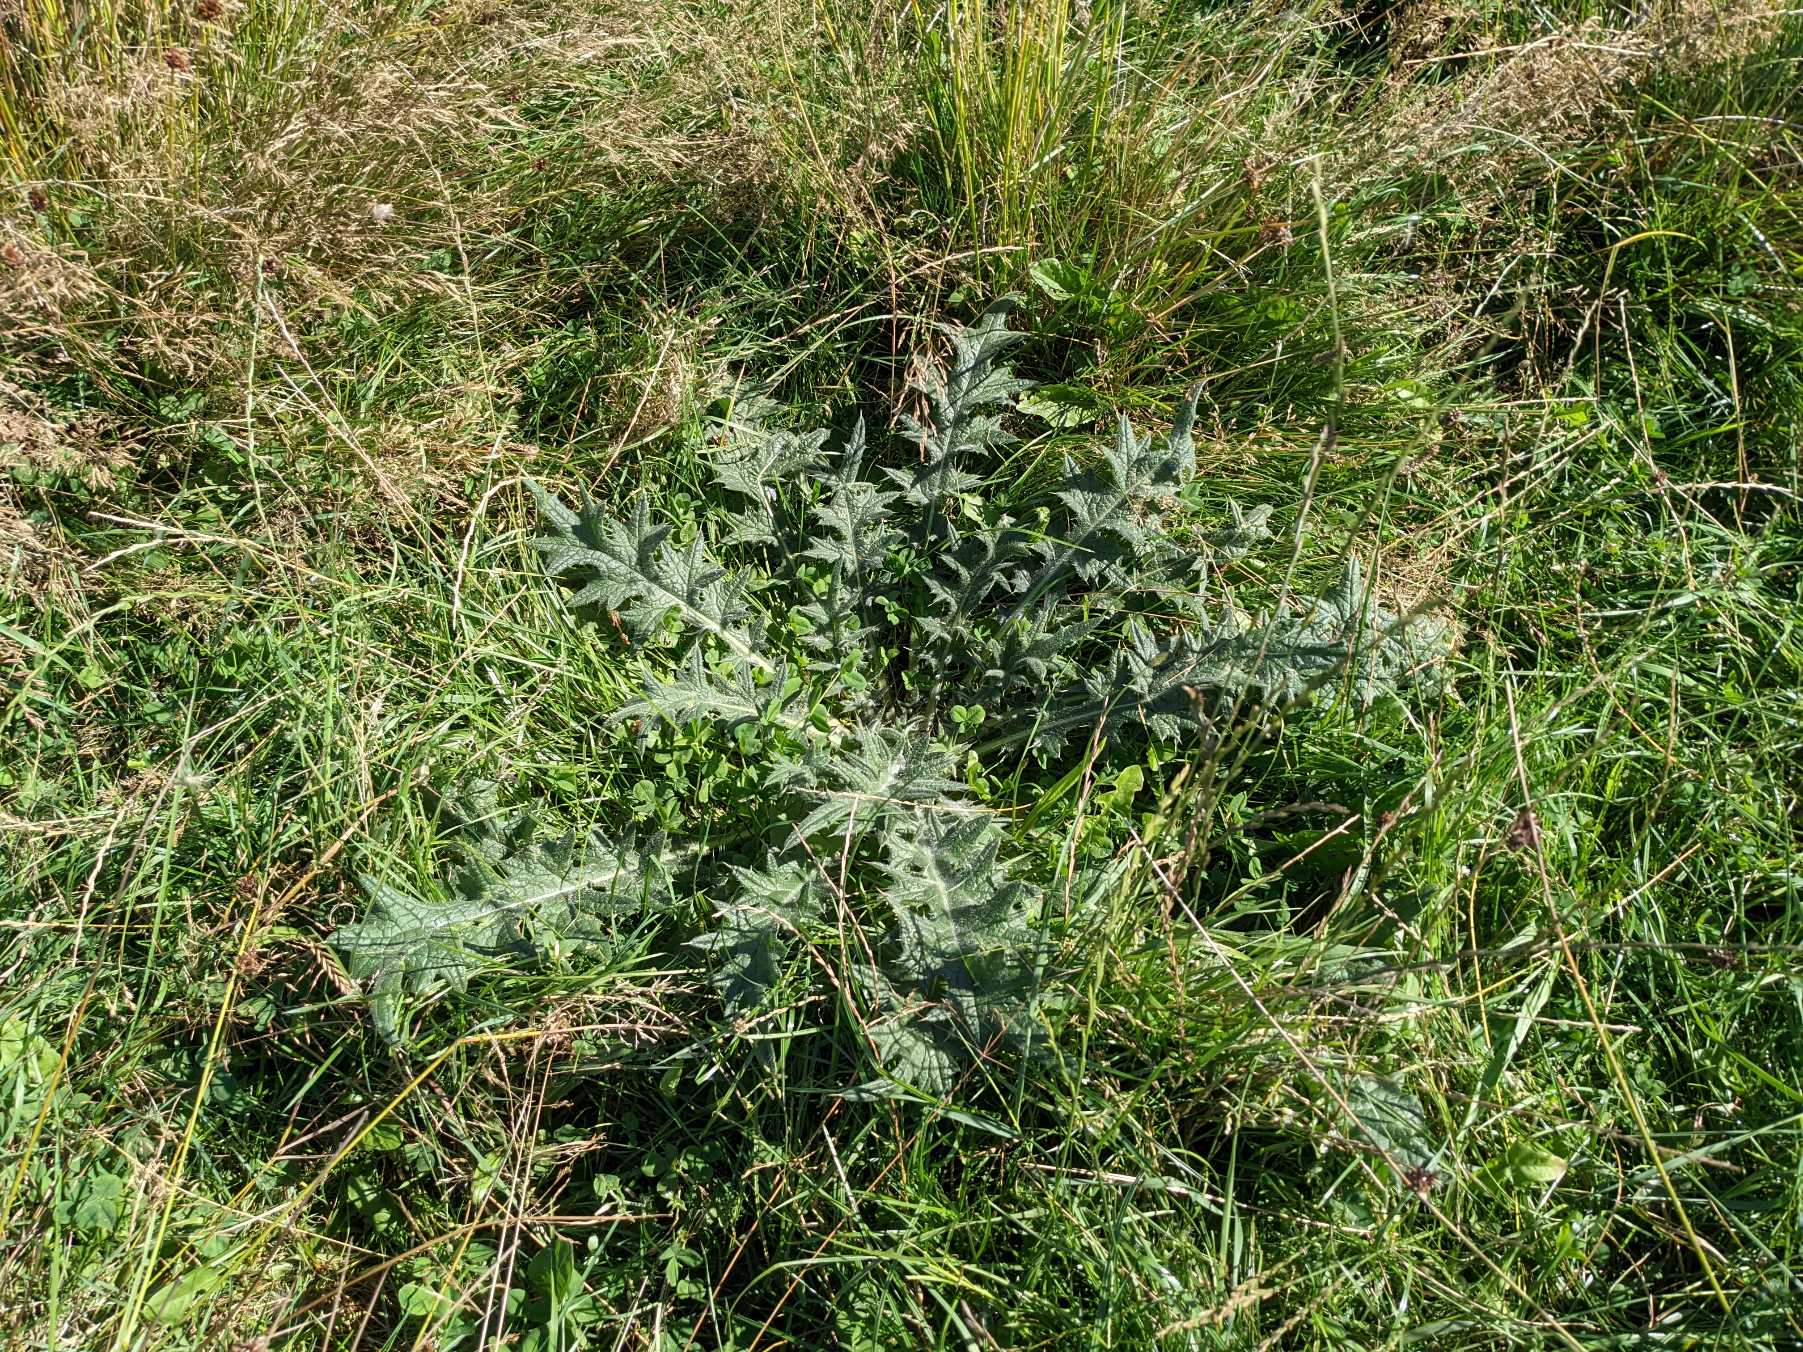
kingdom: Plantae
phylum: Tracheophyta
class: Magnoliopsida
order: Asterales
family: Asteraceae
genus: Cirsium
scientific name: Cirsium vulgare
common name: Horse-tidsel
